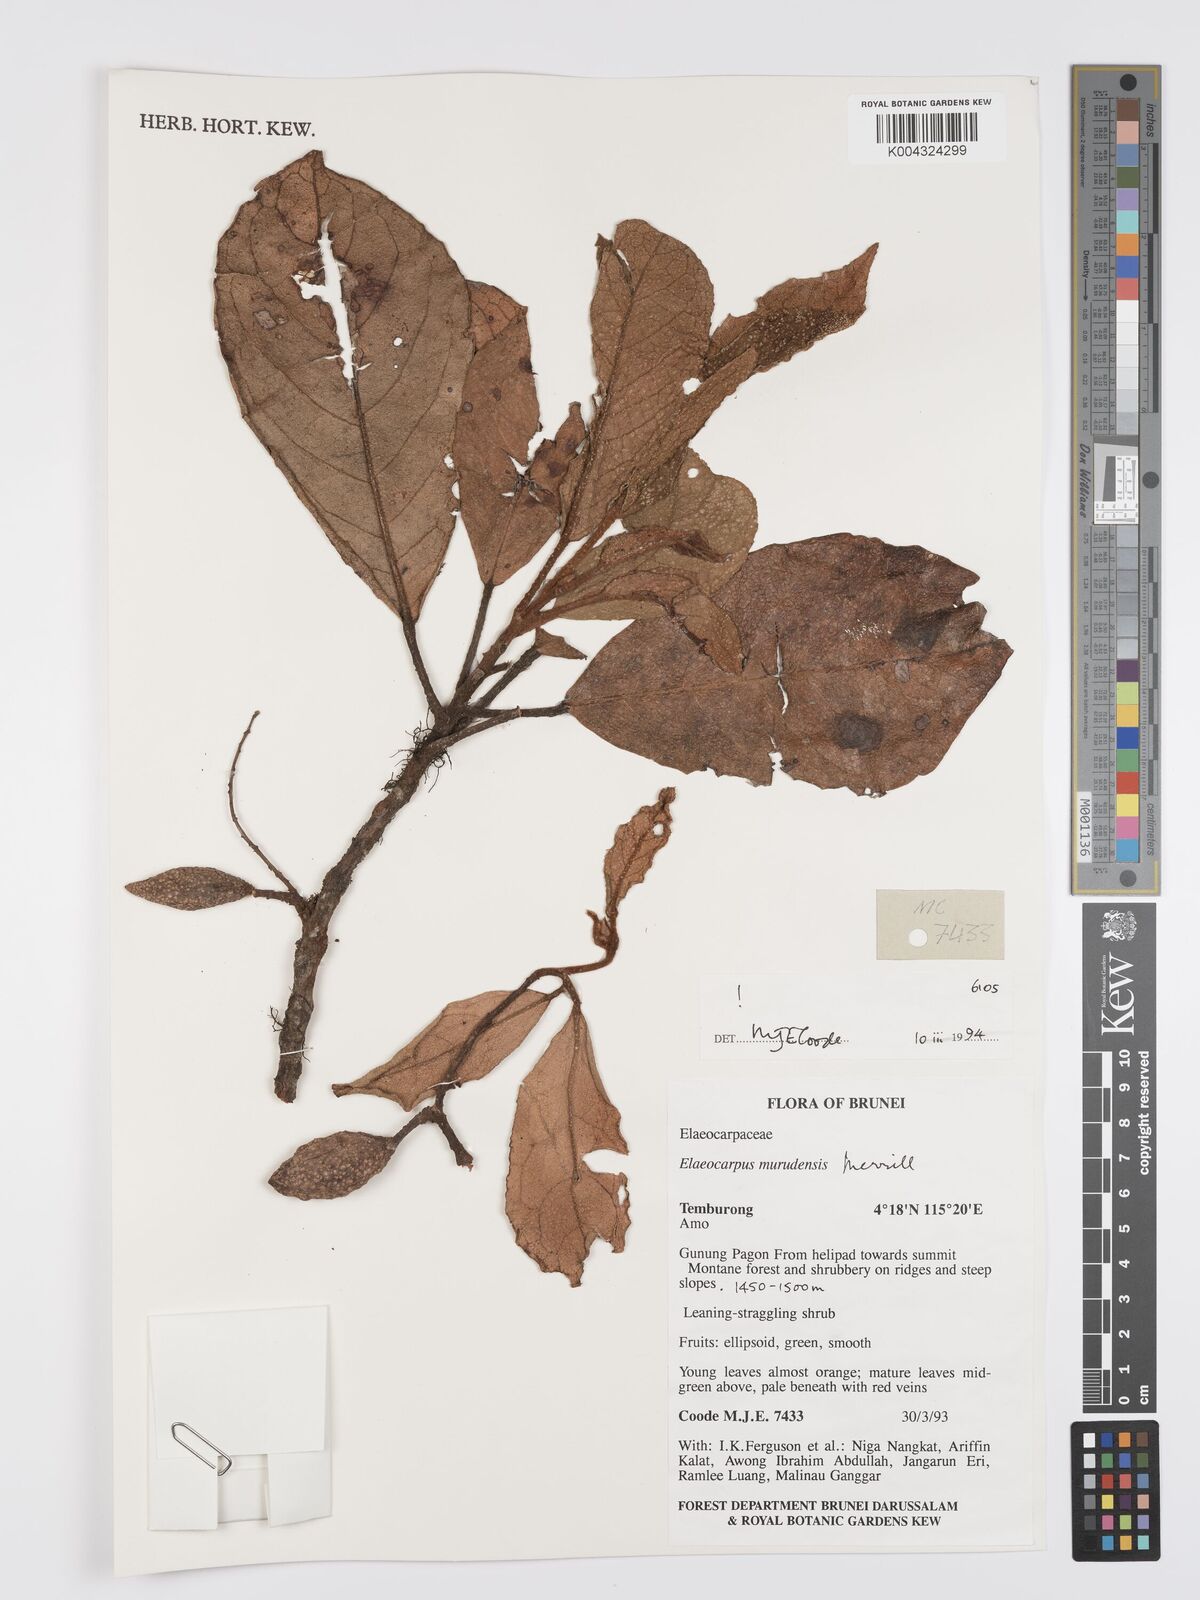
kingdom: Plantae
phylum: Tracheophyta
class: Magnoliopsida
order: Oxalidales
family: Elaeocarpaceae
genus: Elaeocarpus
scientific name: Elaeocarpus murudensis
